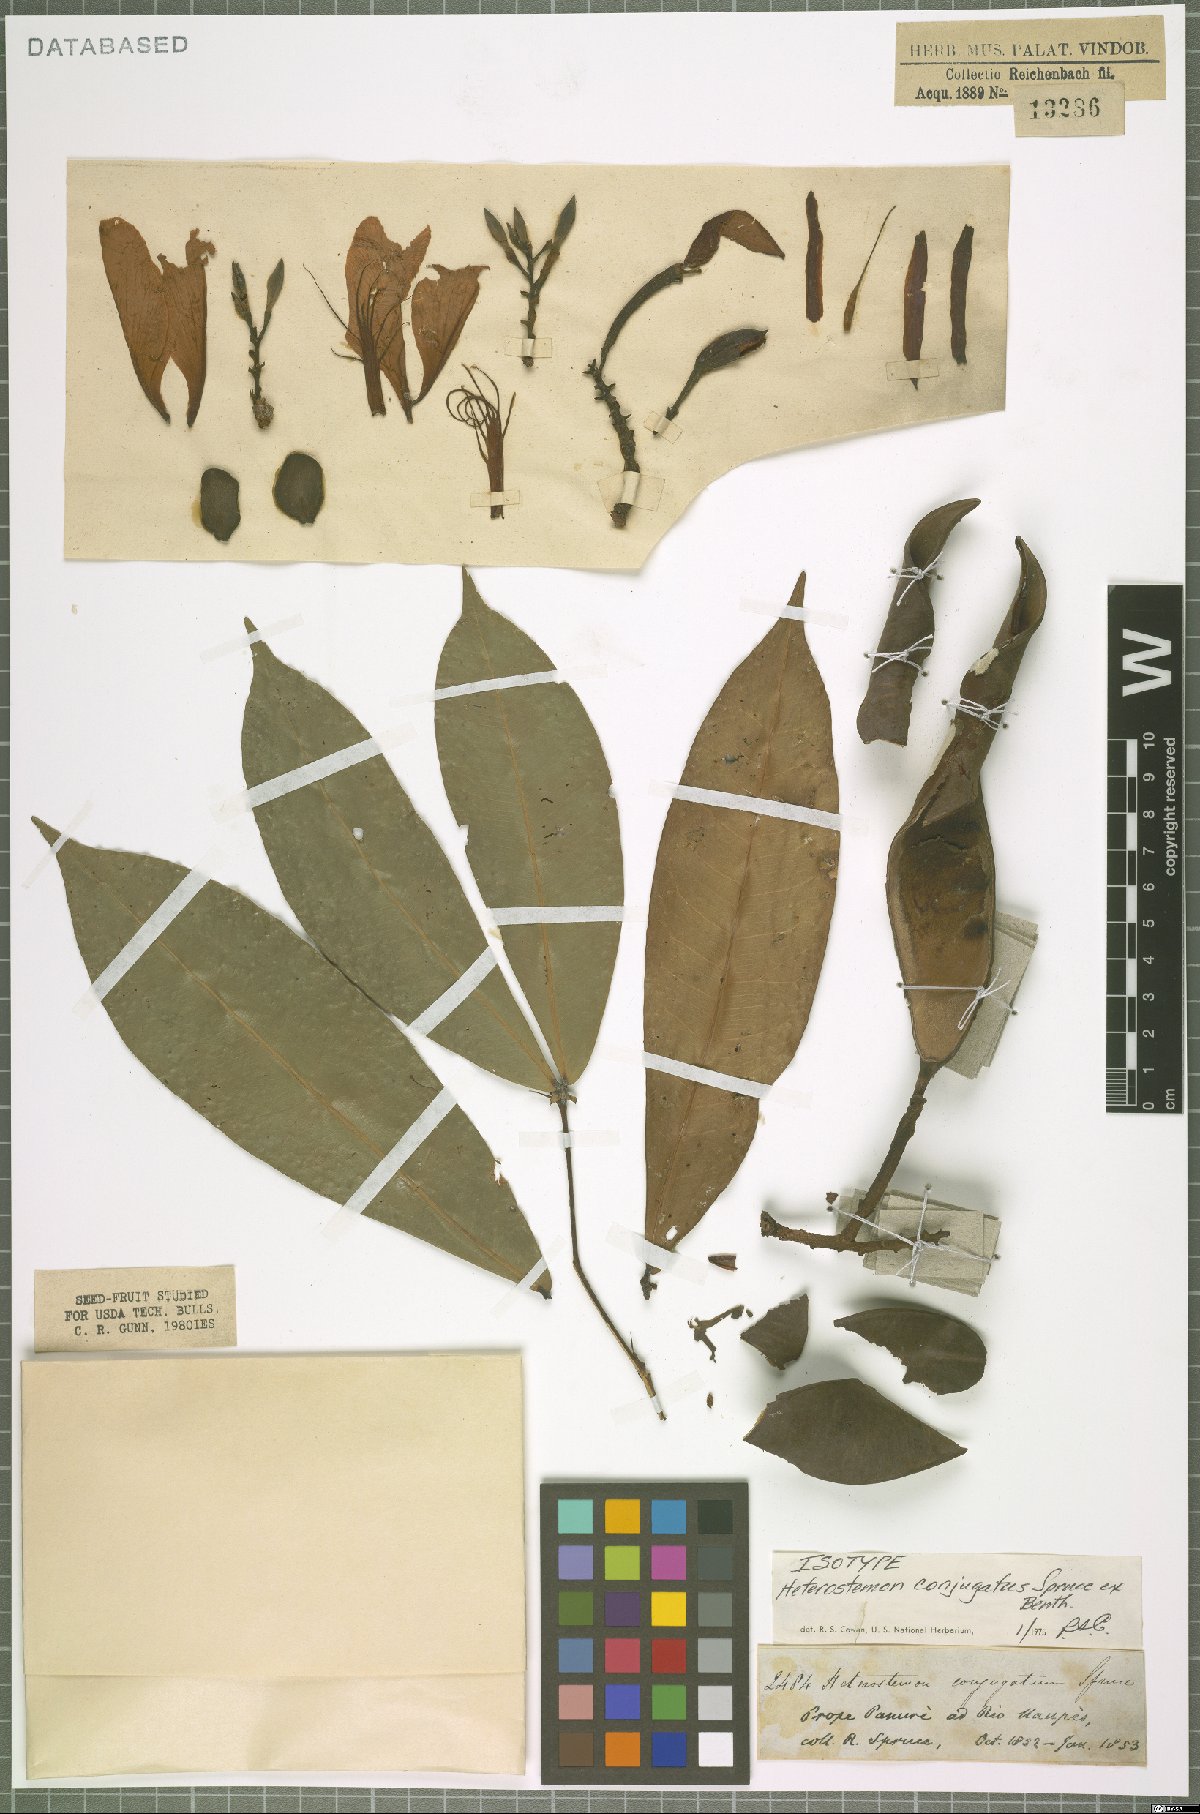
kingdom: Plantae
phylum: Tracheophyta
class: Magnoliopsida
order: Fabales
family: Fabaceae
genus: Heterostemon
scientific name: Heterostemon conjugatus
